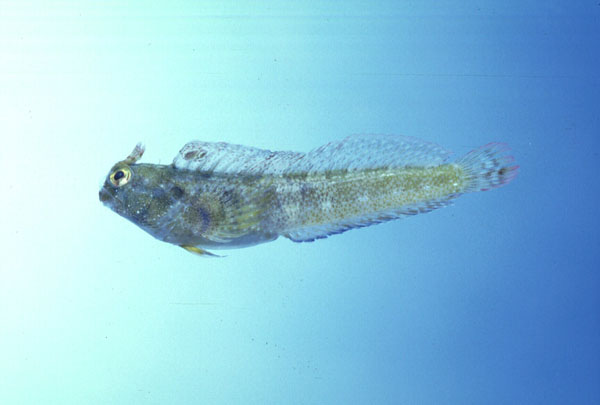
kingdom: Animalia
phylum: Chordata
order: Perciformes
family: Blenniidae
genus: Hirculops
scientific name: Hirculops cornifer
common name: Highbrow rockskipper
